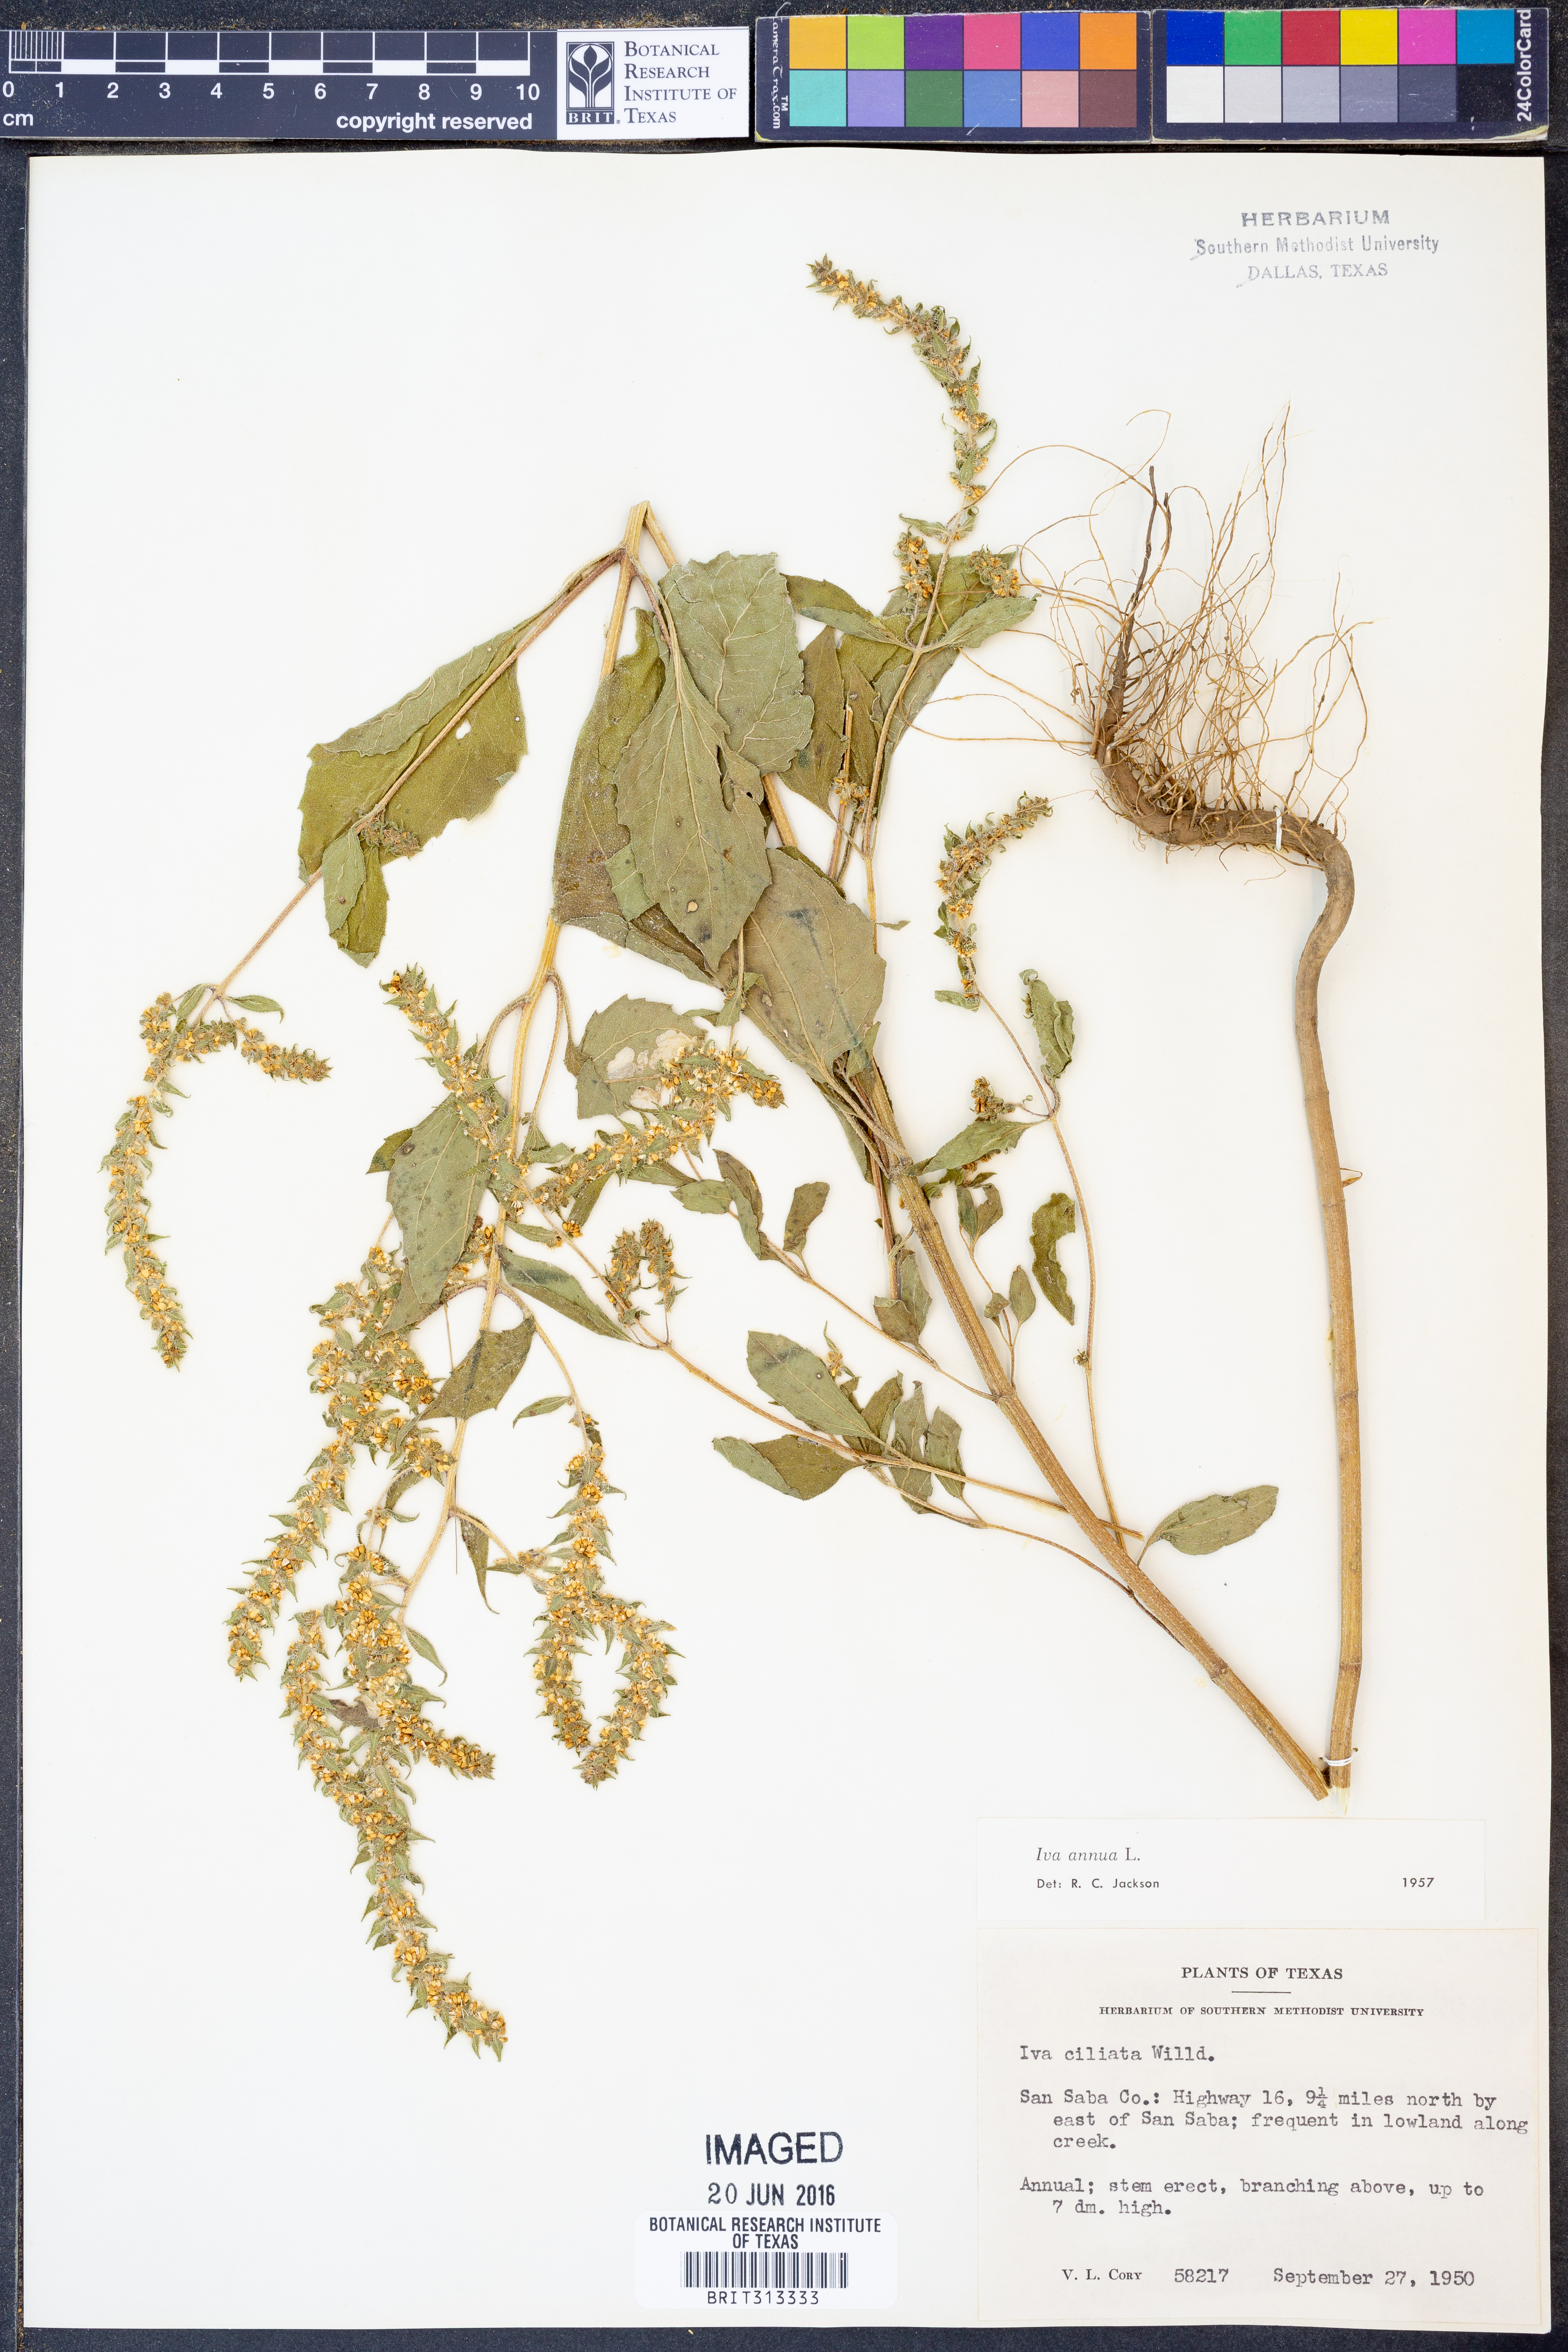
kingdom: Plantae
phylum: Tracheophyta
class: Magnoliopsida
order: Asterales
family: Asteraceae
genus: Iva
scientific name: Iva annua
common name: Marsh-elder
